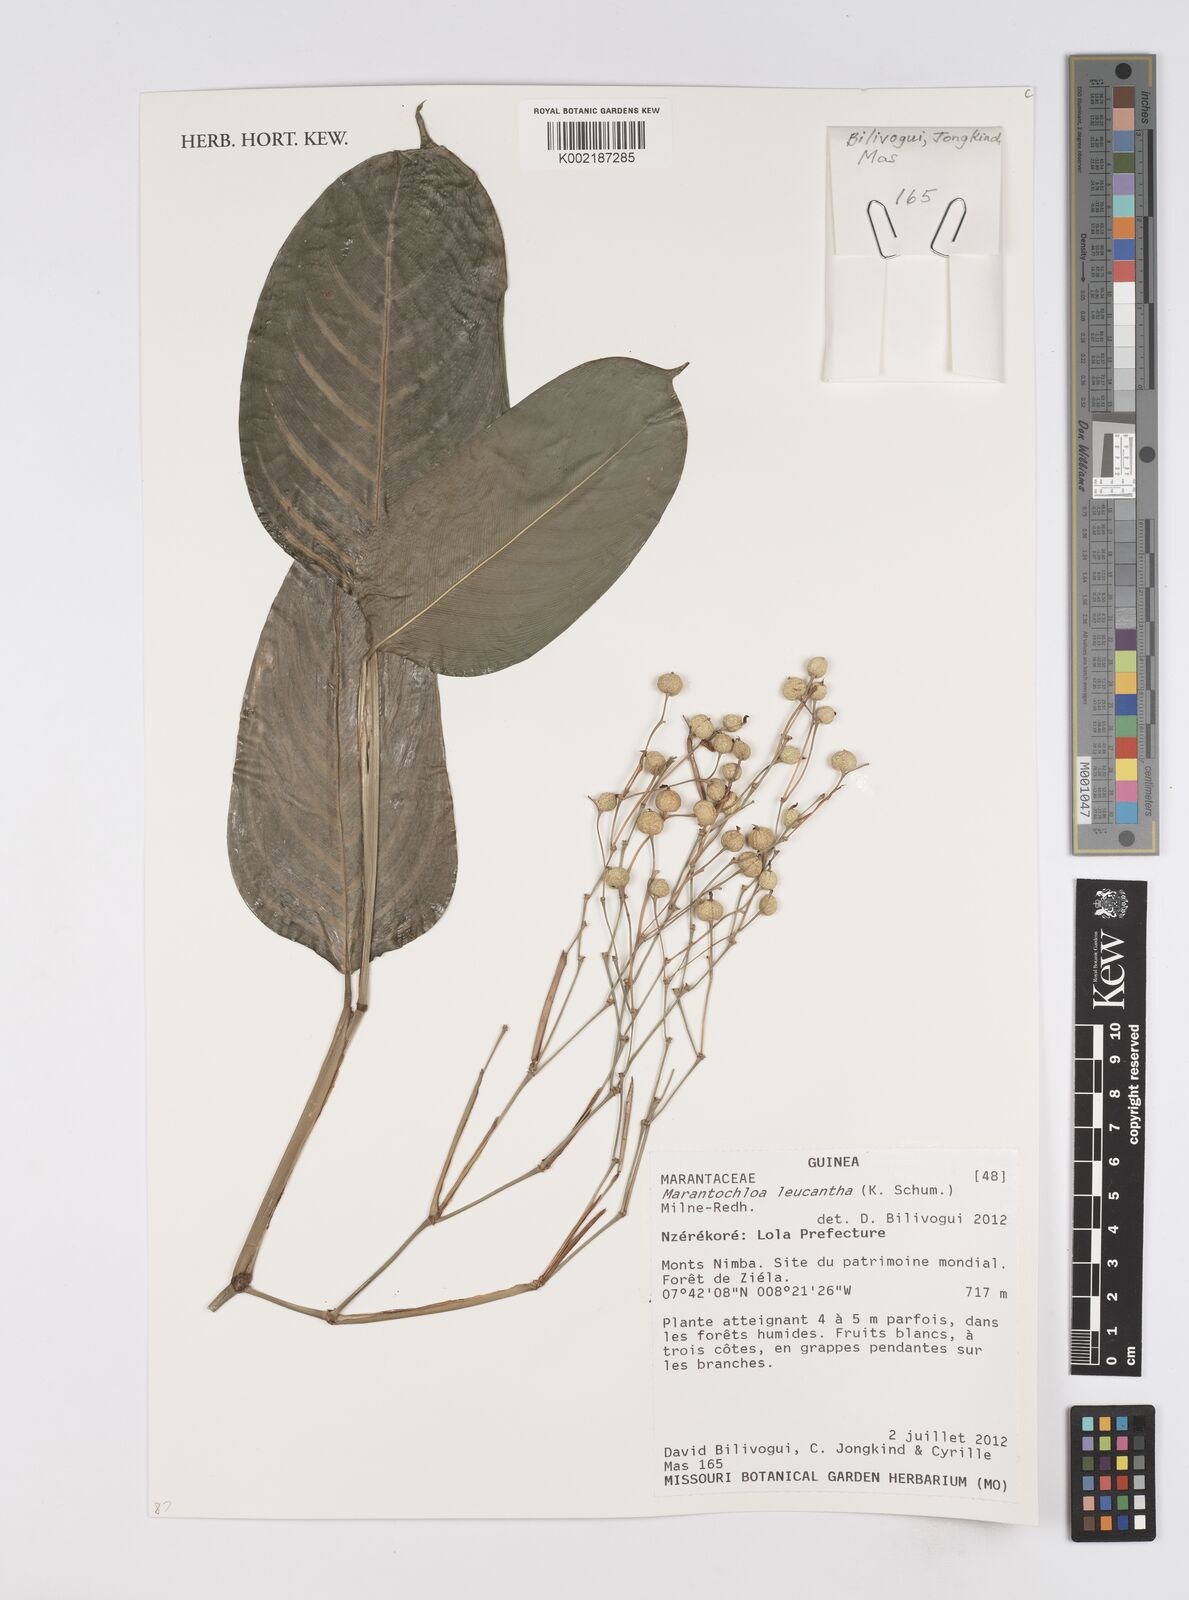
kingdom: Plantae
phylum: Tracheophyta
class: Liliopsida
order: Zingiberales
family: Marantaceae
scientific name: Marantaceae
